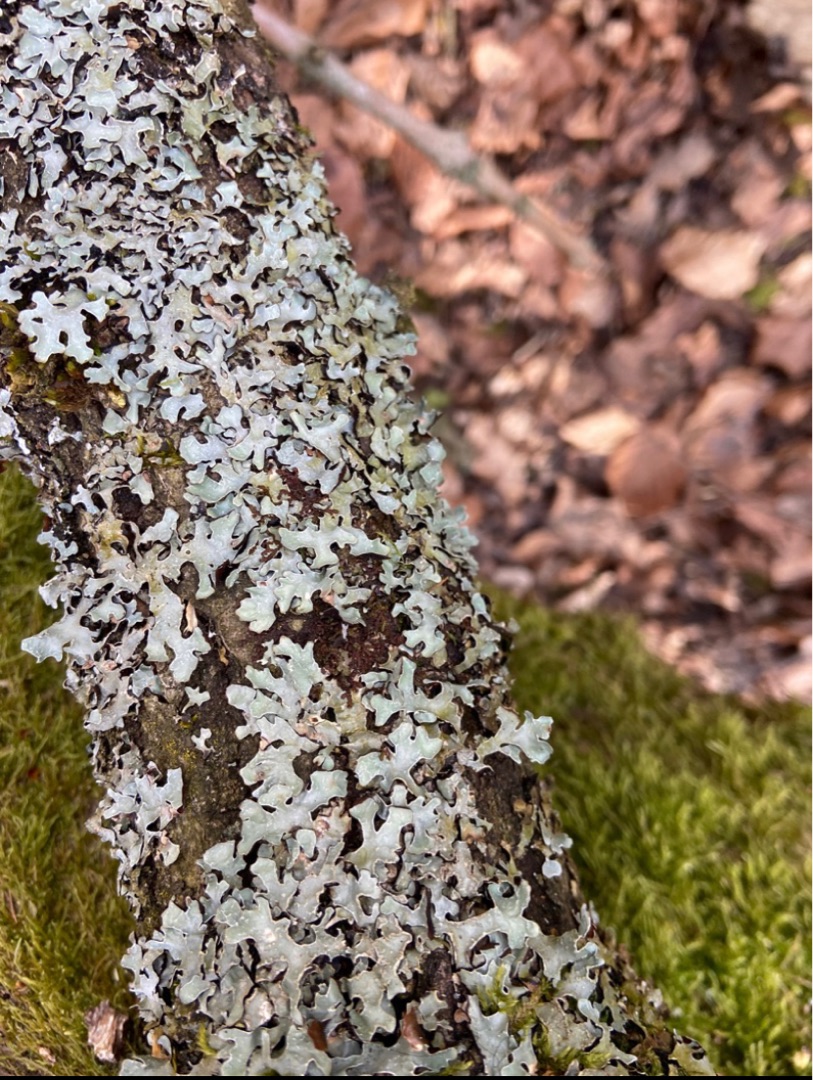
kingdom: Fungi
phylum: Ascomycota
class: Lecanoromycetes
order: Lecanorales
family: Parmeliaceae
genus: Parmelia
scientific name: Parmelia sulcata
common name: Rynket skållav
